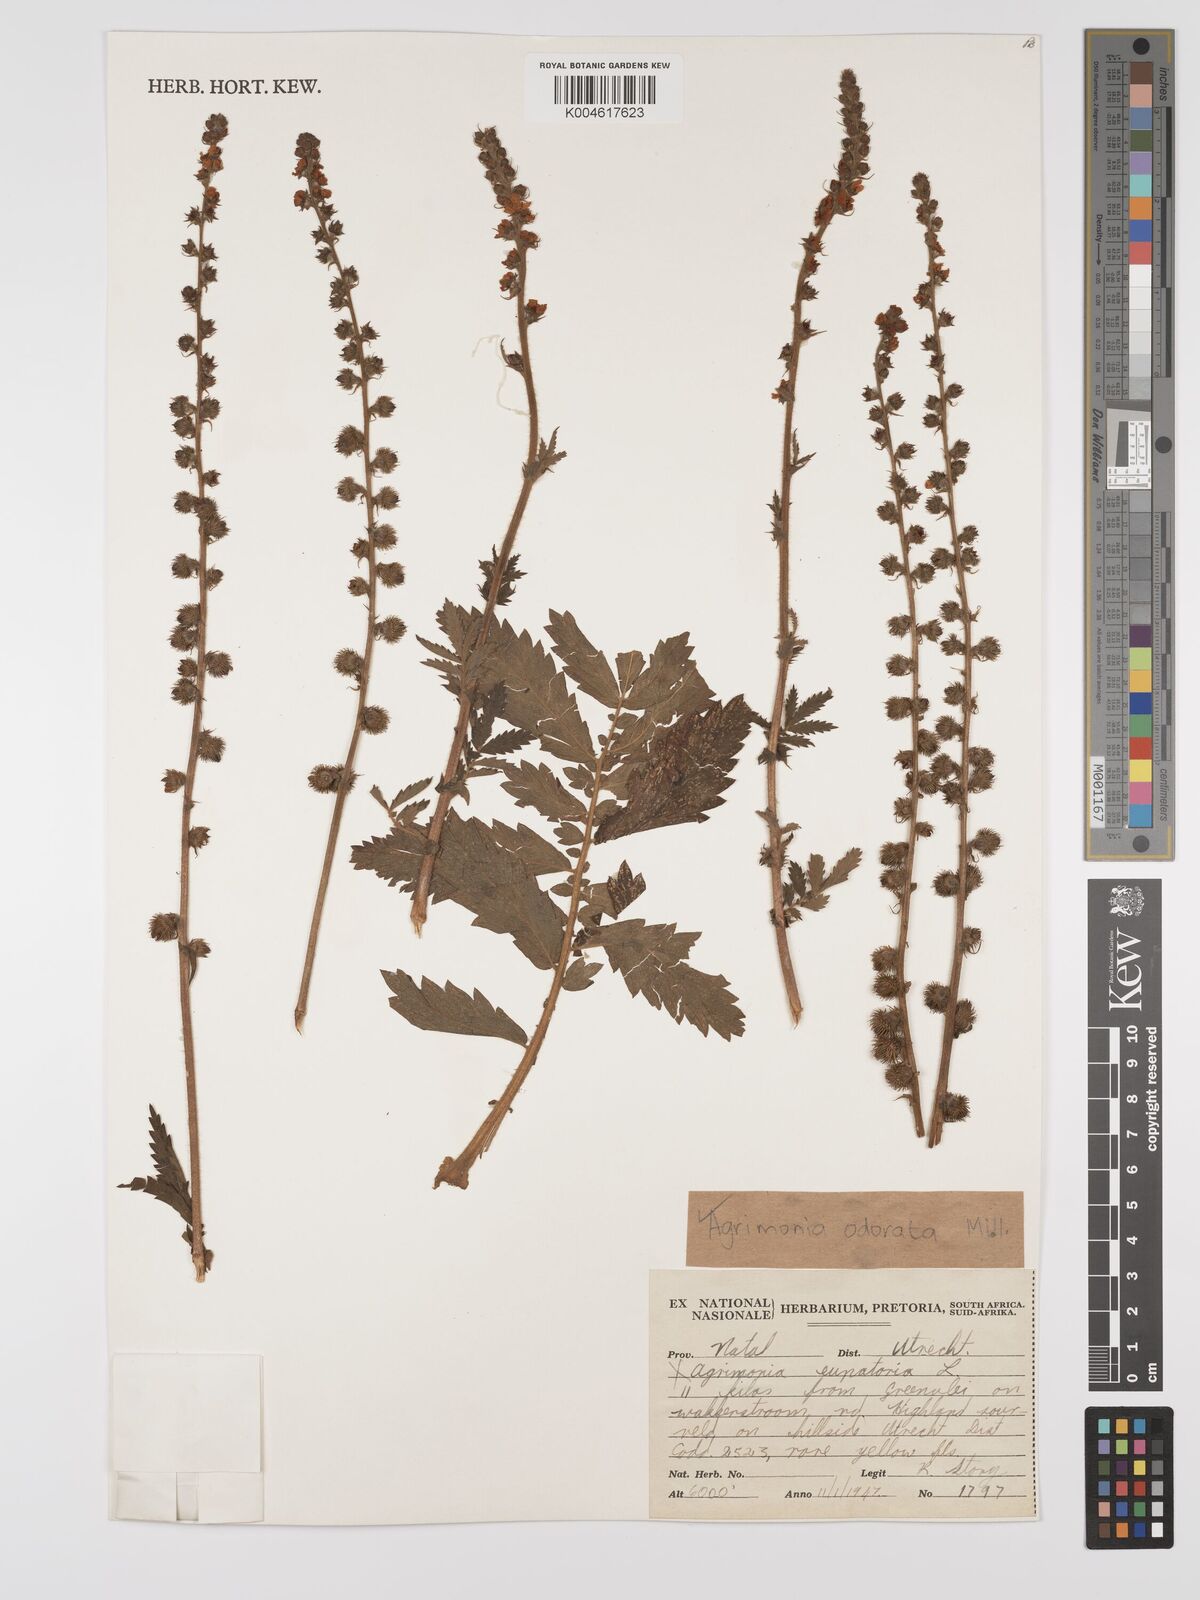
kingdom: Plantae
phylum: Tracheophyta
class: Magnoliopsida
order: Rosales
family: Rosaceae
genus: Agrimonia
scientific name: Agrimonia repens
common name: Creeping agrimony
